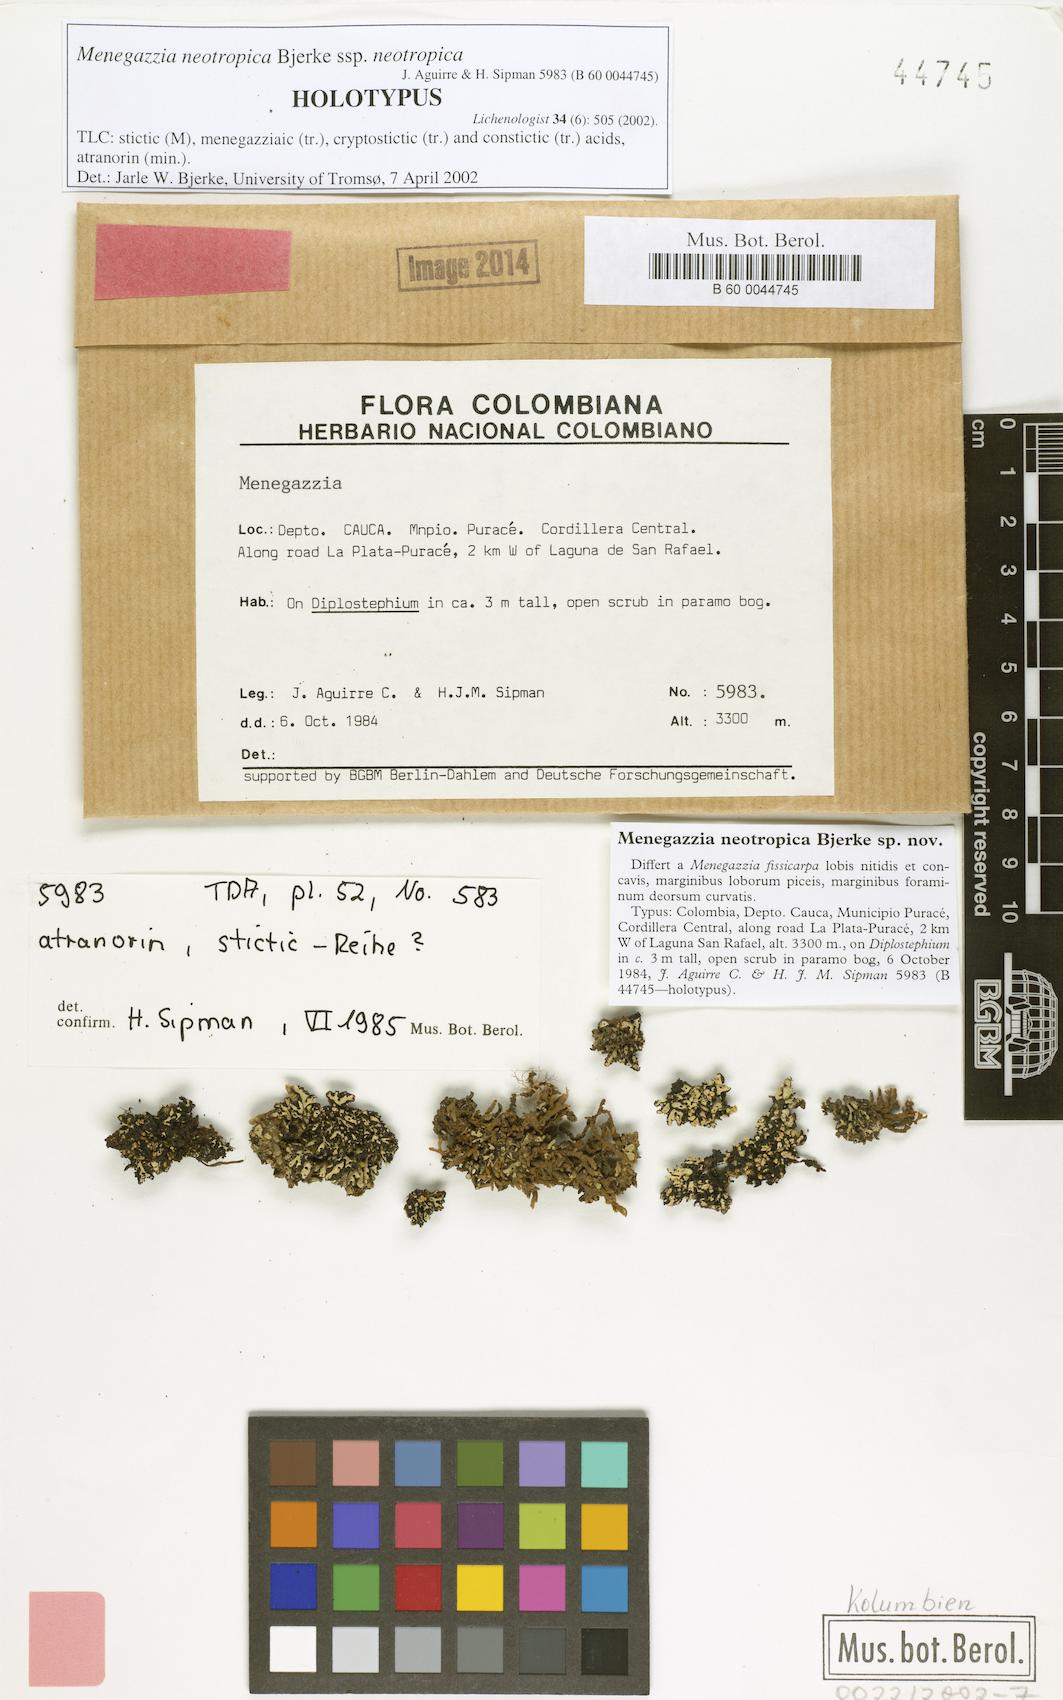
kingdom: Fungi
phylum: Ascomycota
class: Lecanoromycetes
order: Lecanorales
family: Parmeliaceae
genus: Menegazzia
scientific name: Menegazzia neotropica
